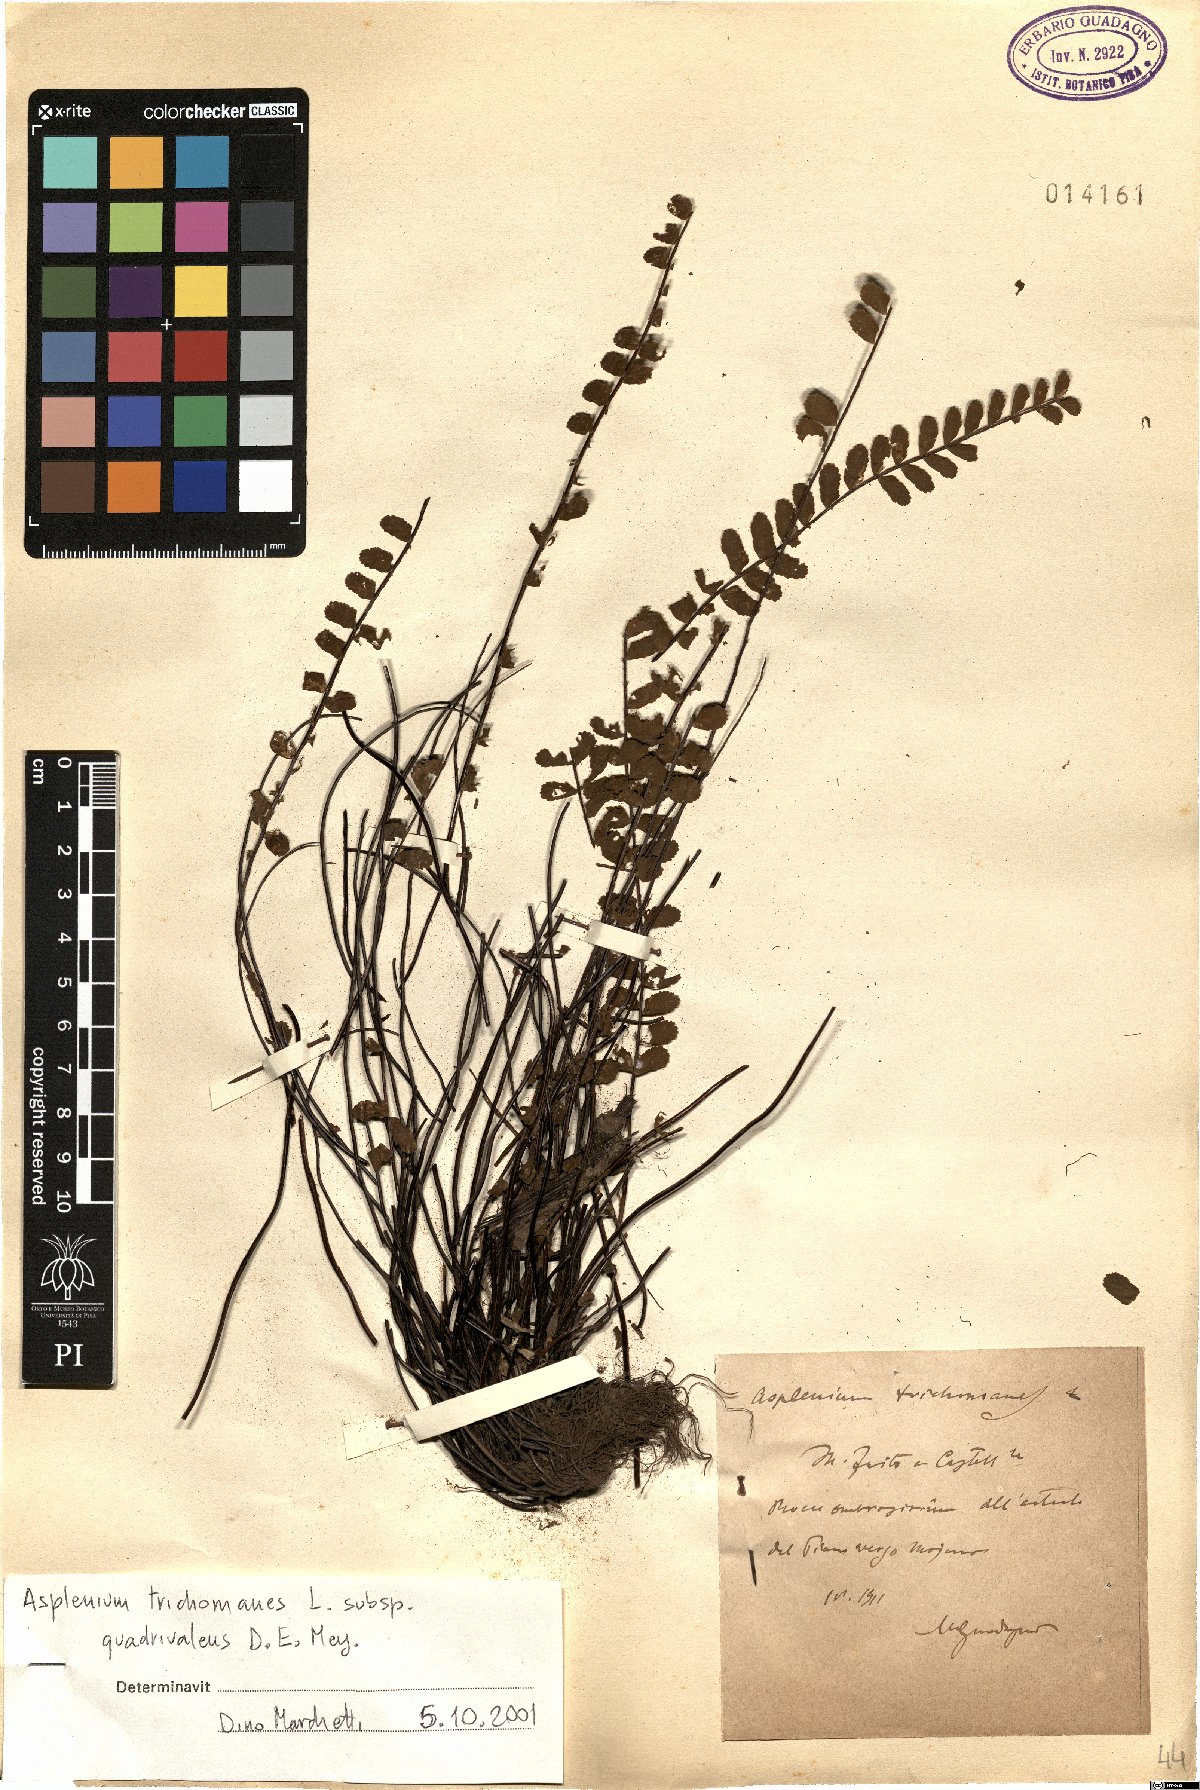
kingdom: Plantae
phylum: Tracheophyta
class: Polypodiopsida
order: Polypodiales
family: Aspleniaceae
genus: Asplenium
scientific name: Asplenium quadrivalens
